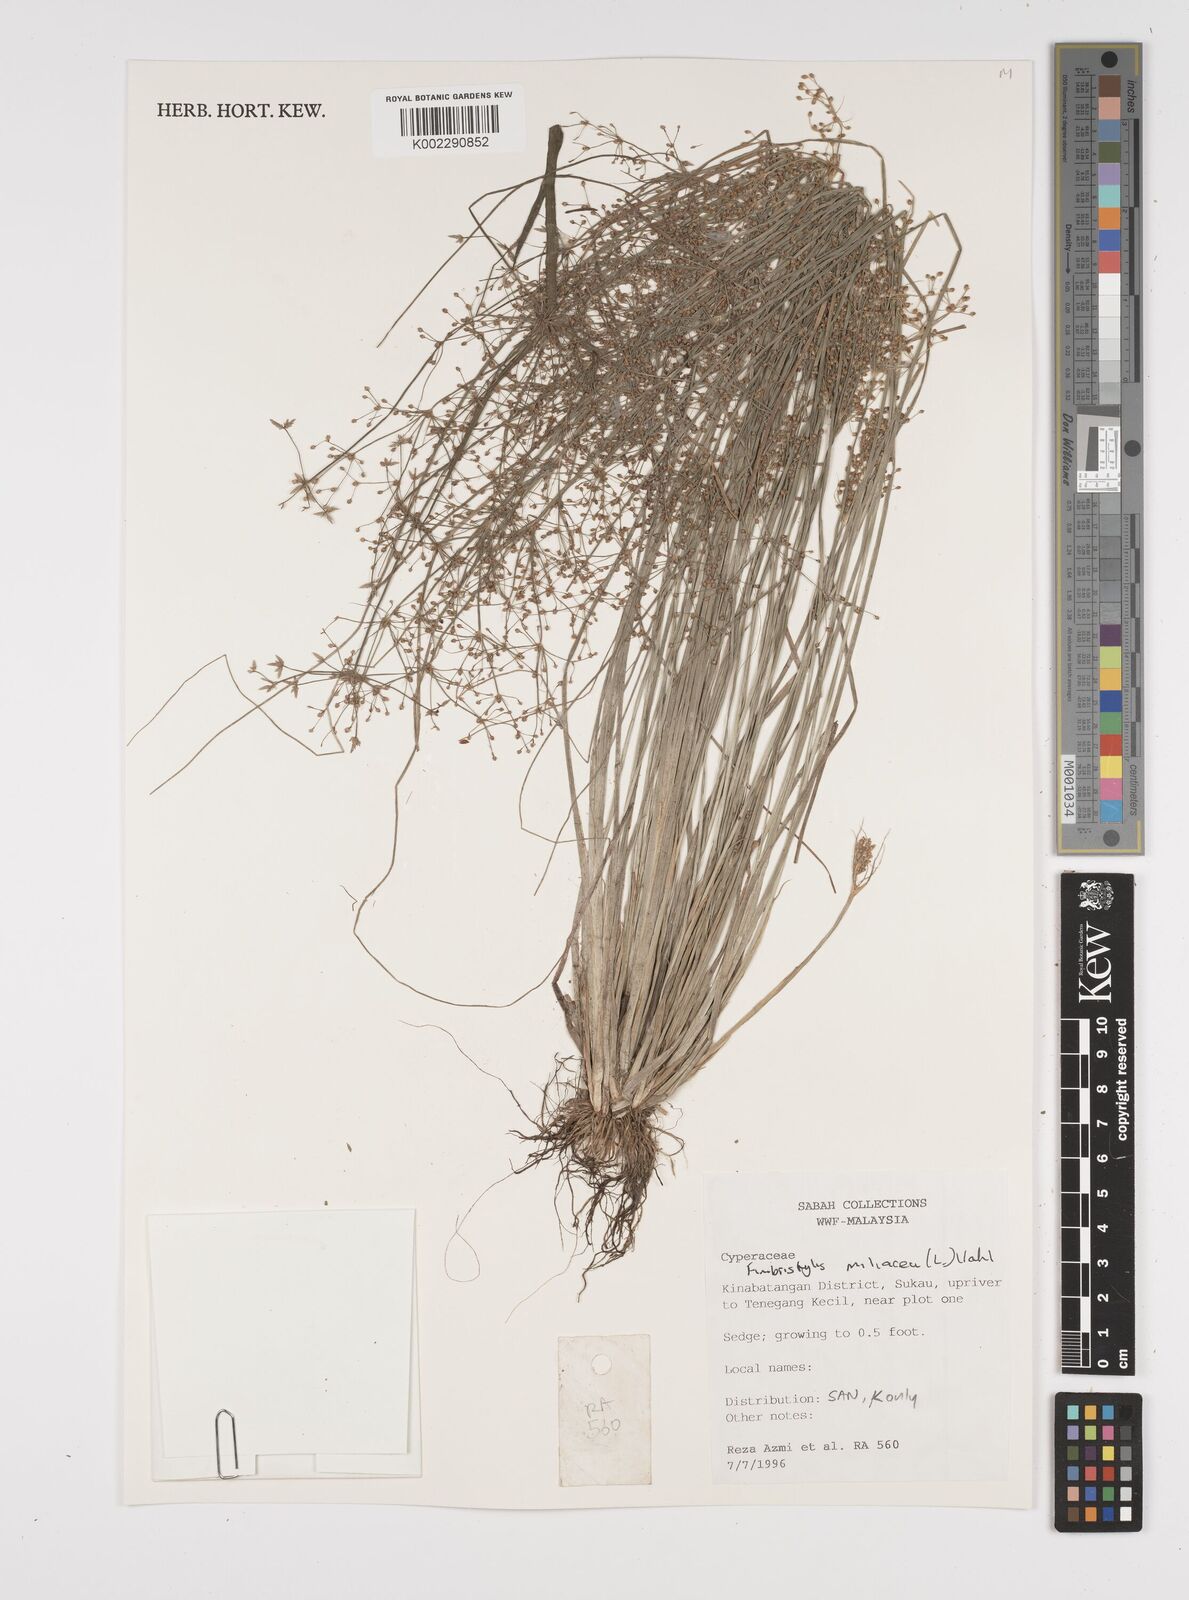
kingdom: Plantae
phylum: Tracheophyta
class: Liliopsida
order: Poales
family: Cyperaceae
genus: Fimbristylis
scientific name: Fimbristylis littoralis
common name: Fimbry
